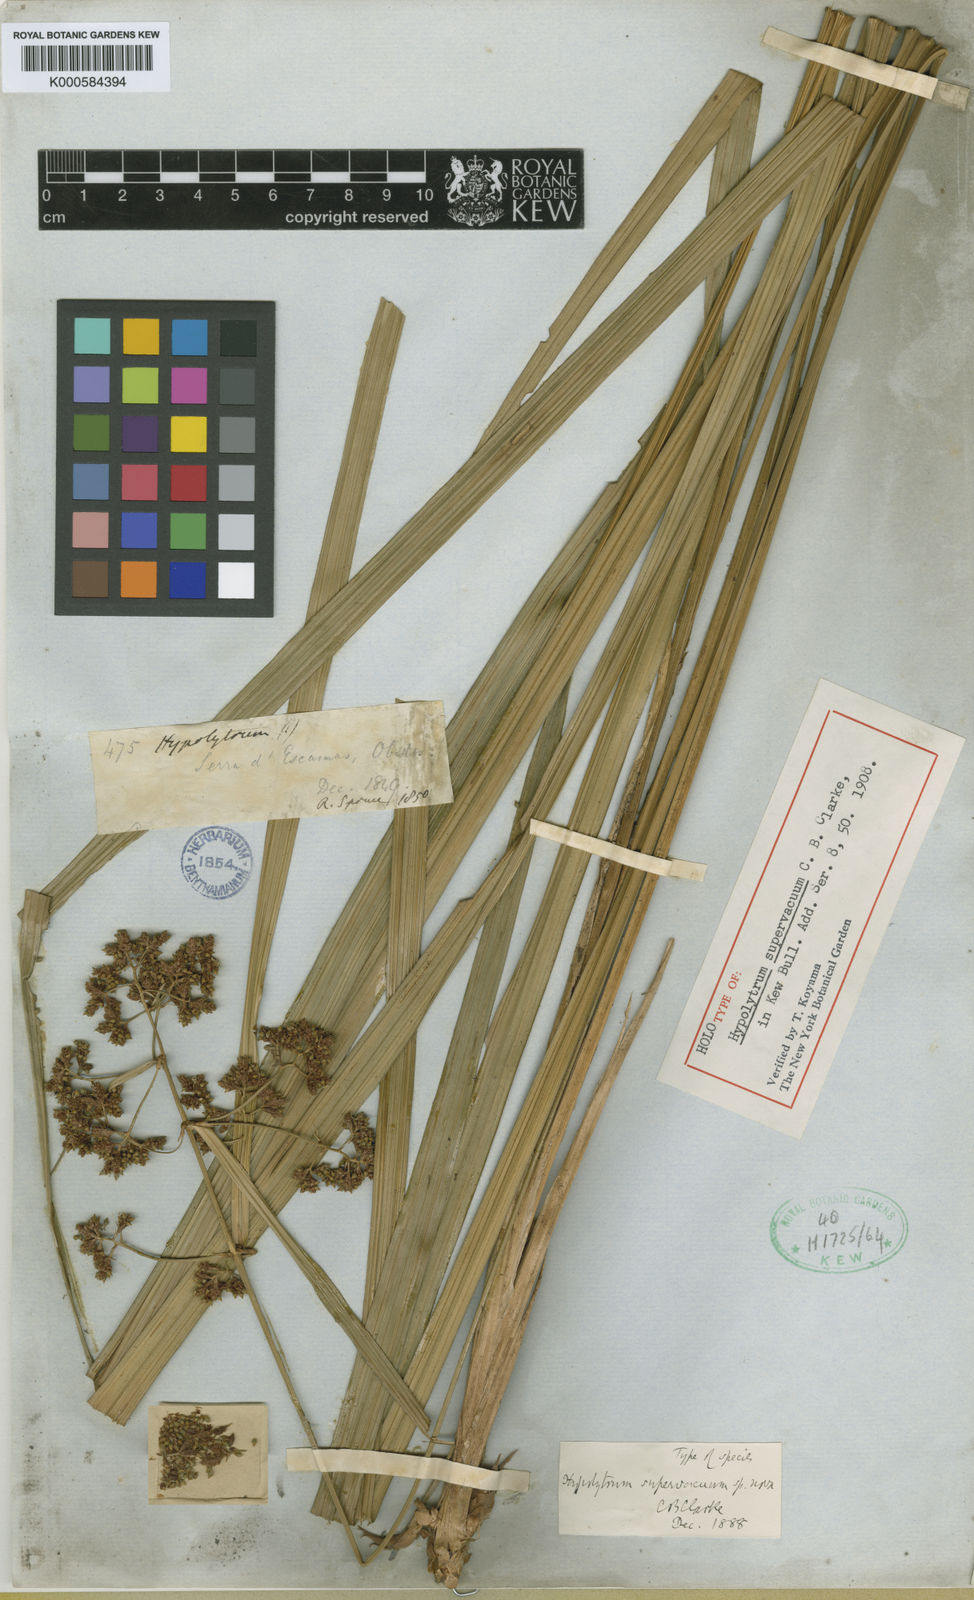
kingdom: Plantae
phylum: Tracheophyta
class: Liliopsida
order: Poales
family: Cyperaceae
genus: Hypolytrum
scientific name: Hypolytrum supervacuum
